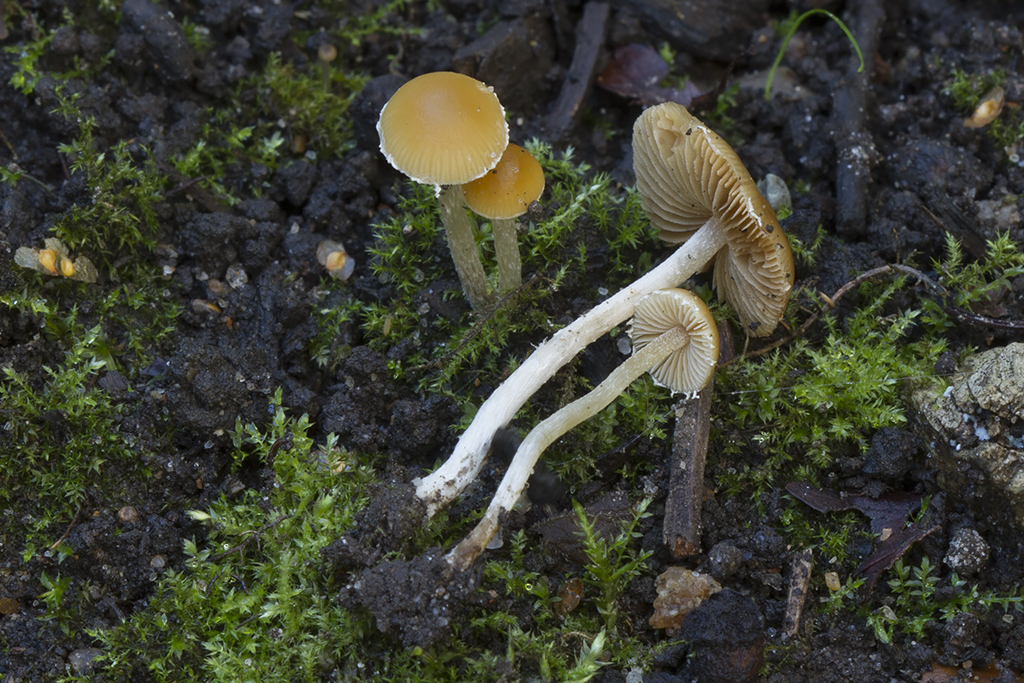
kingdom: Fungi
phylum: Basidiomycota
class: Agaricomycetes
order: Agaricales
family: Bolbitiaceae
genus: Conocybe
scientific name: Conocybe velata
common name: tandet dansehat
